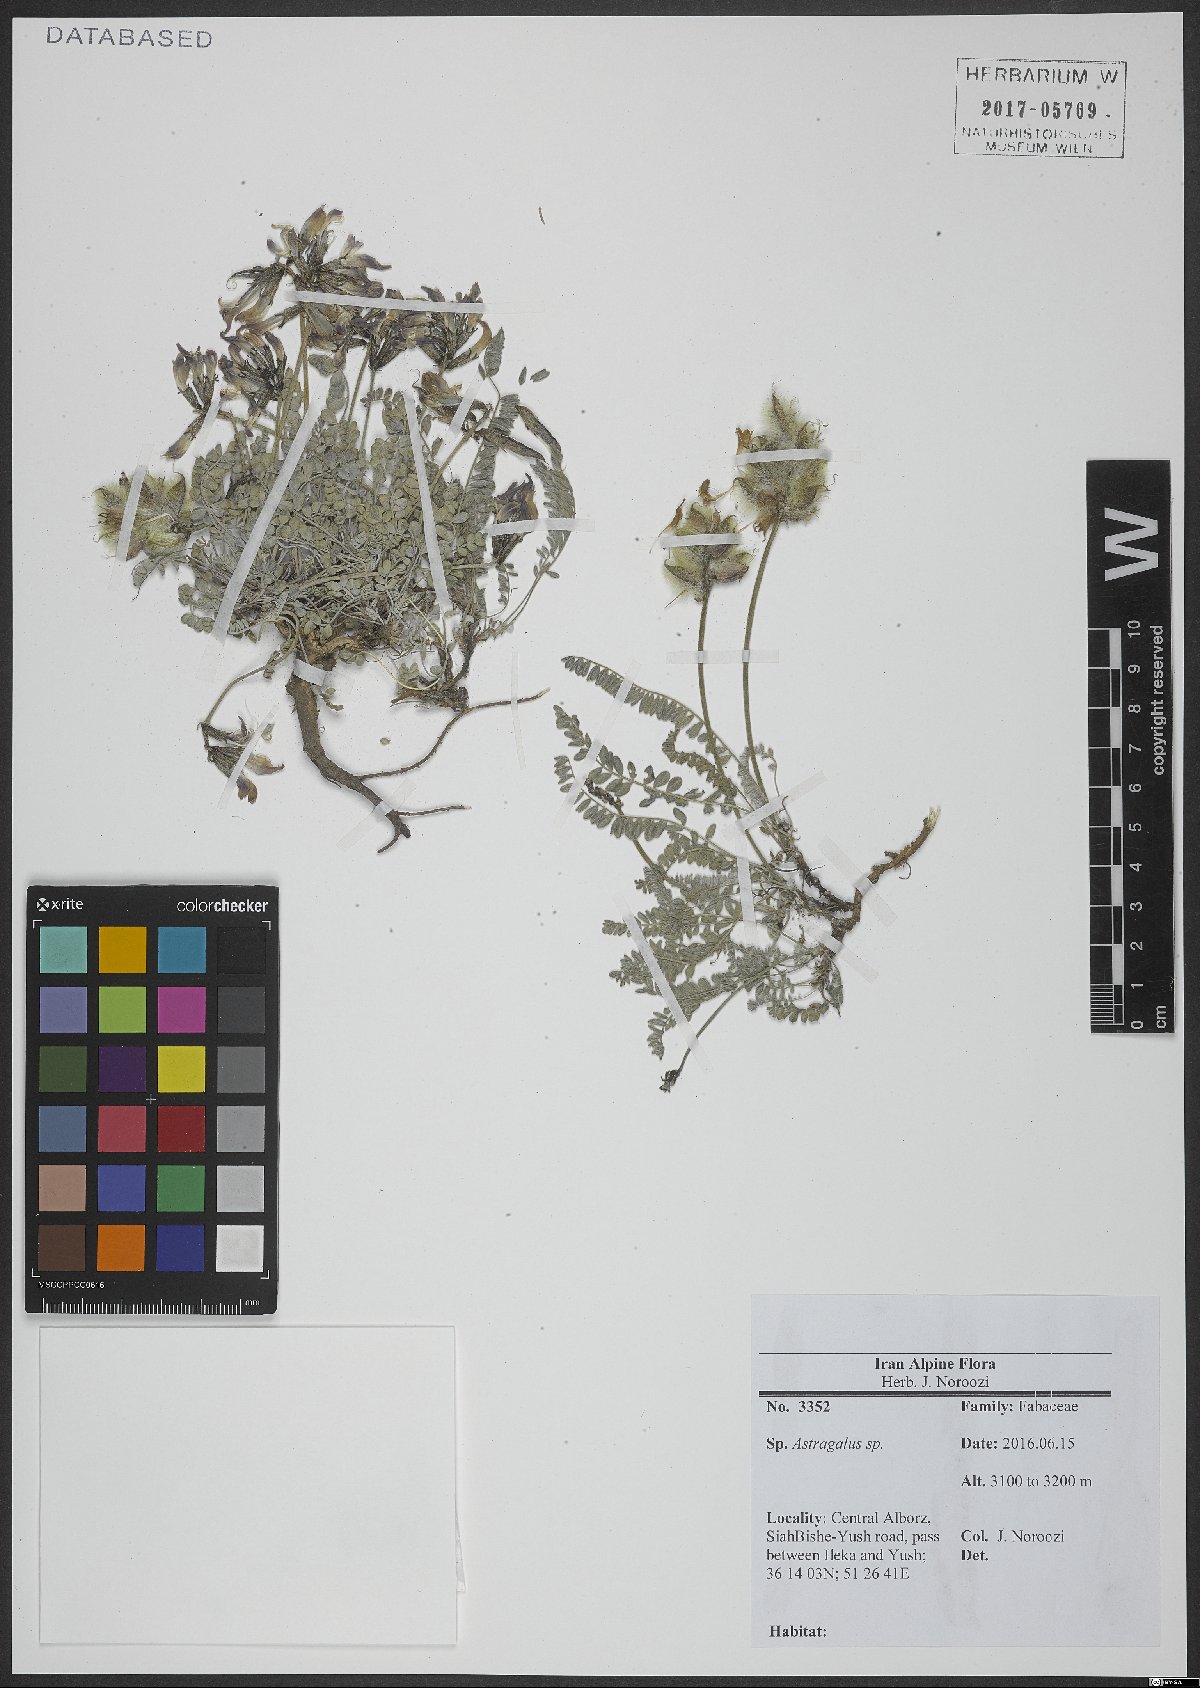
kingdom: Plantae
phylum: Tracheophyta
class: Magnoliopsida
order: Fabales
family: Fabaceae
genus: Astragalus
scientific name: Astragalus
